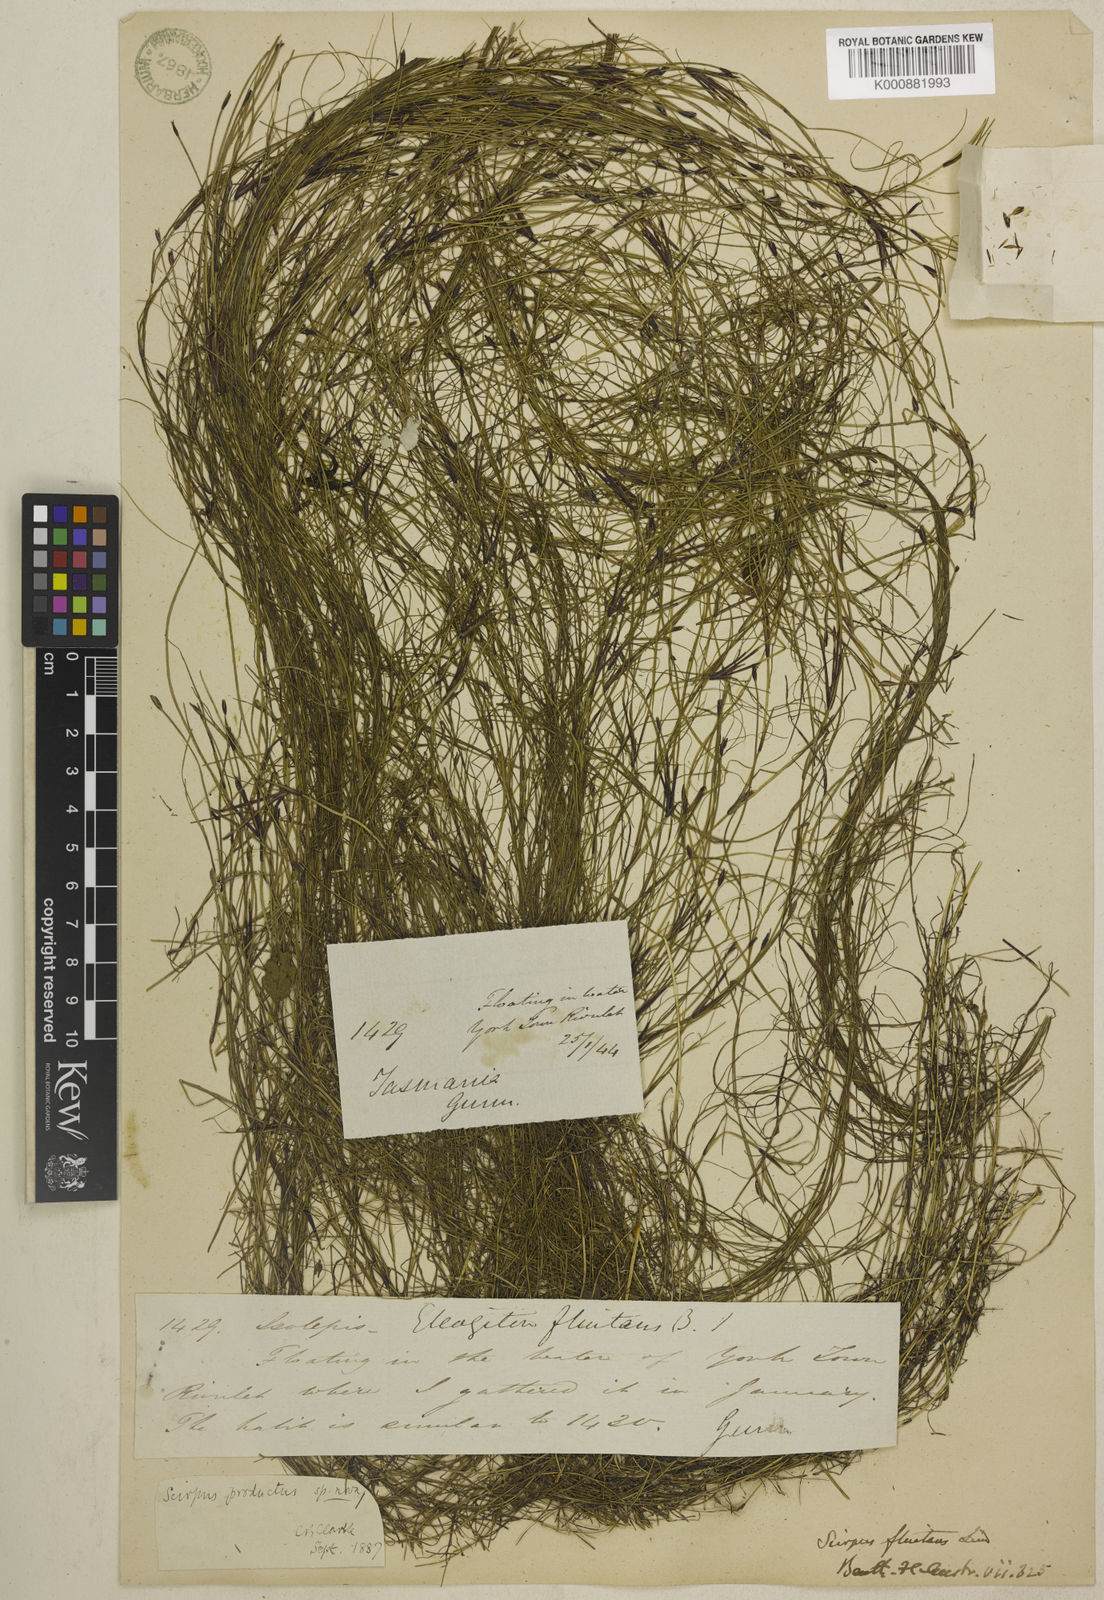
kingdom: Plantae
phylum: Tracheophyta
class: Liliopsida
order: Poales
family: Cyperaceae
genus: Isolepis
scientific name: Isolepis producta
